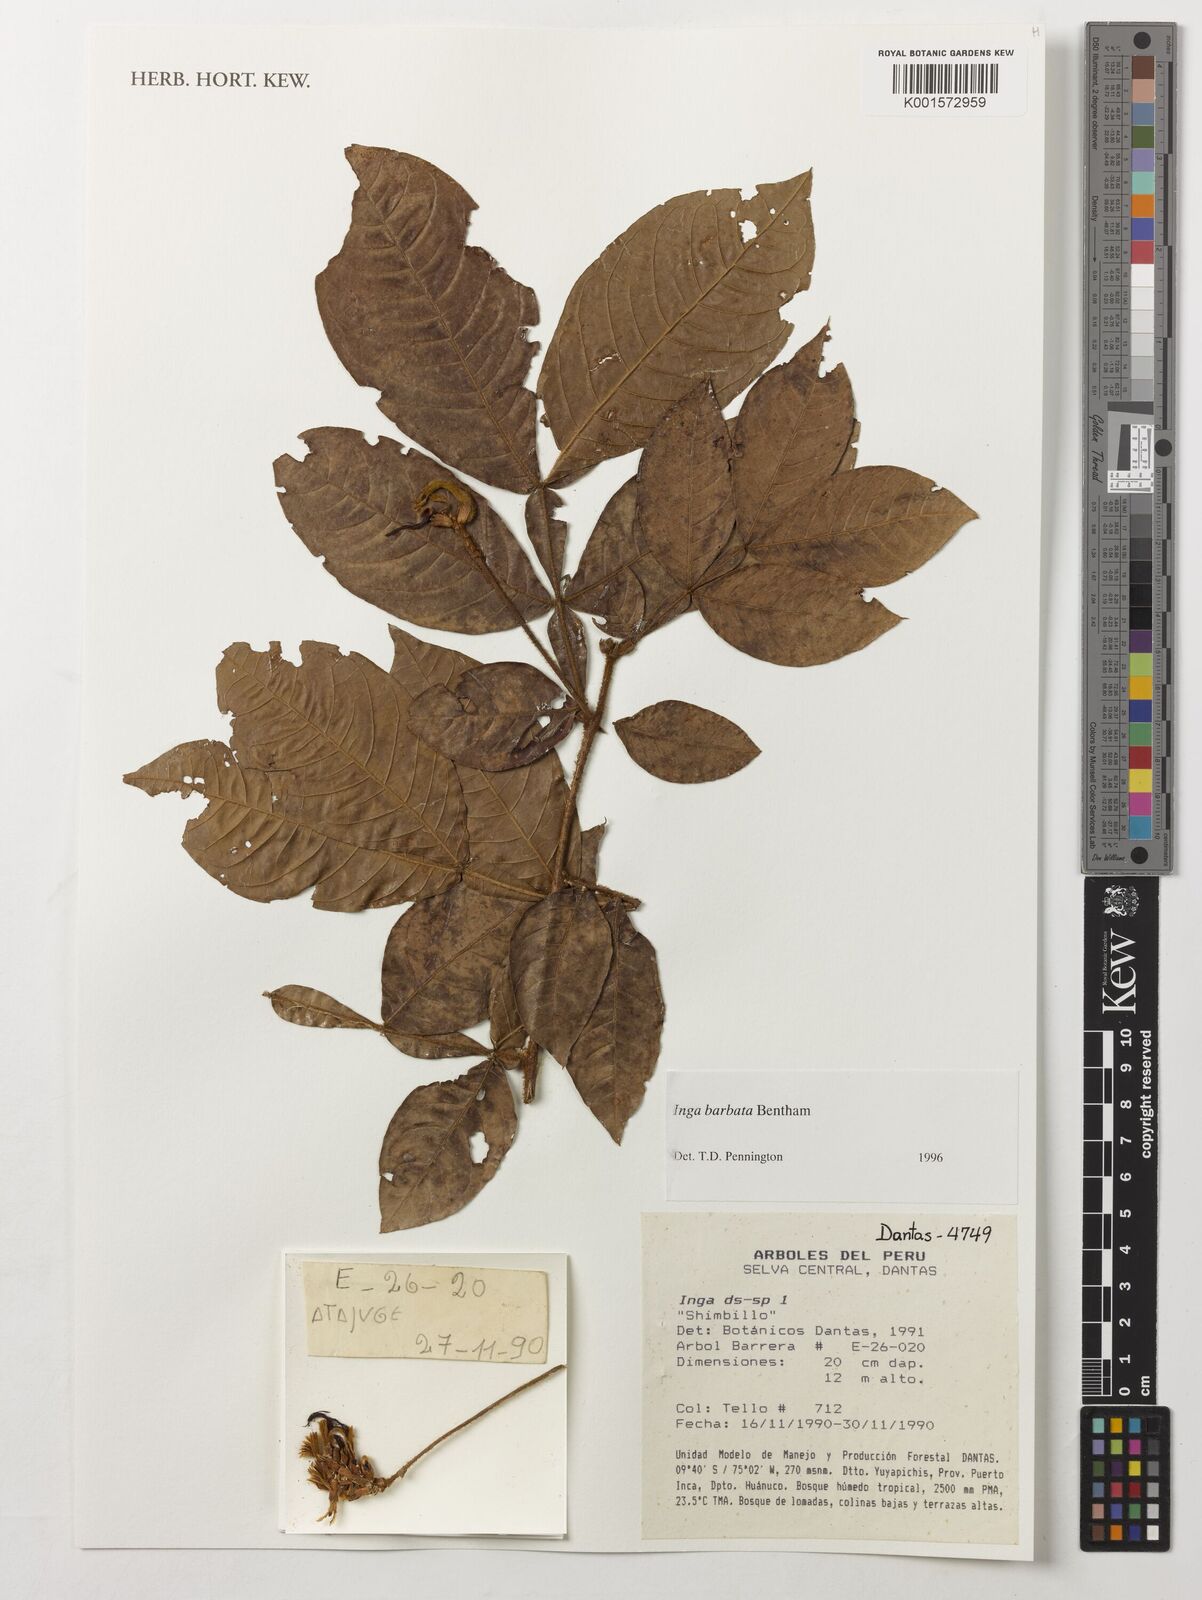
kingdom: Plantae
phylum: Tracheophyta
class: Magnoliopsida
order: Fabales
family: Fabaceae
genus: Inga
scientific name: Inga barbata
